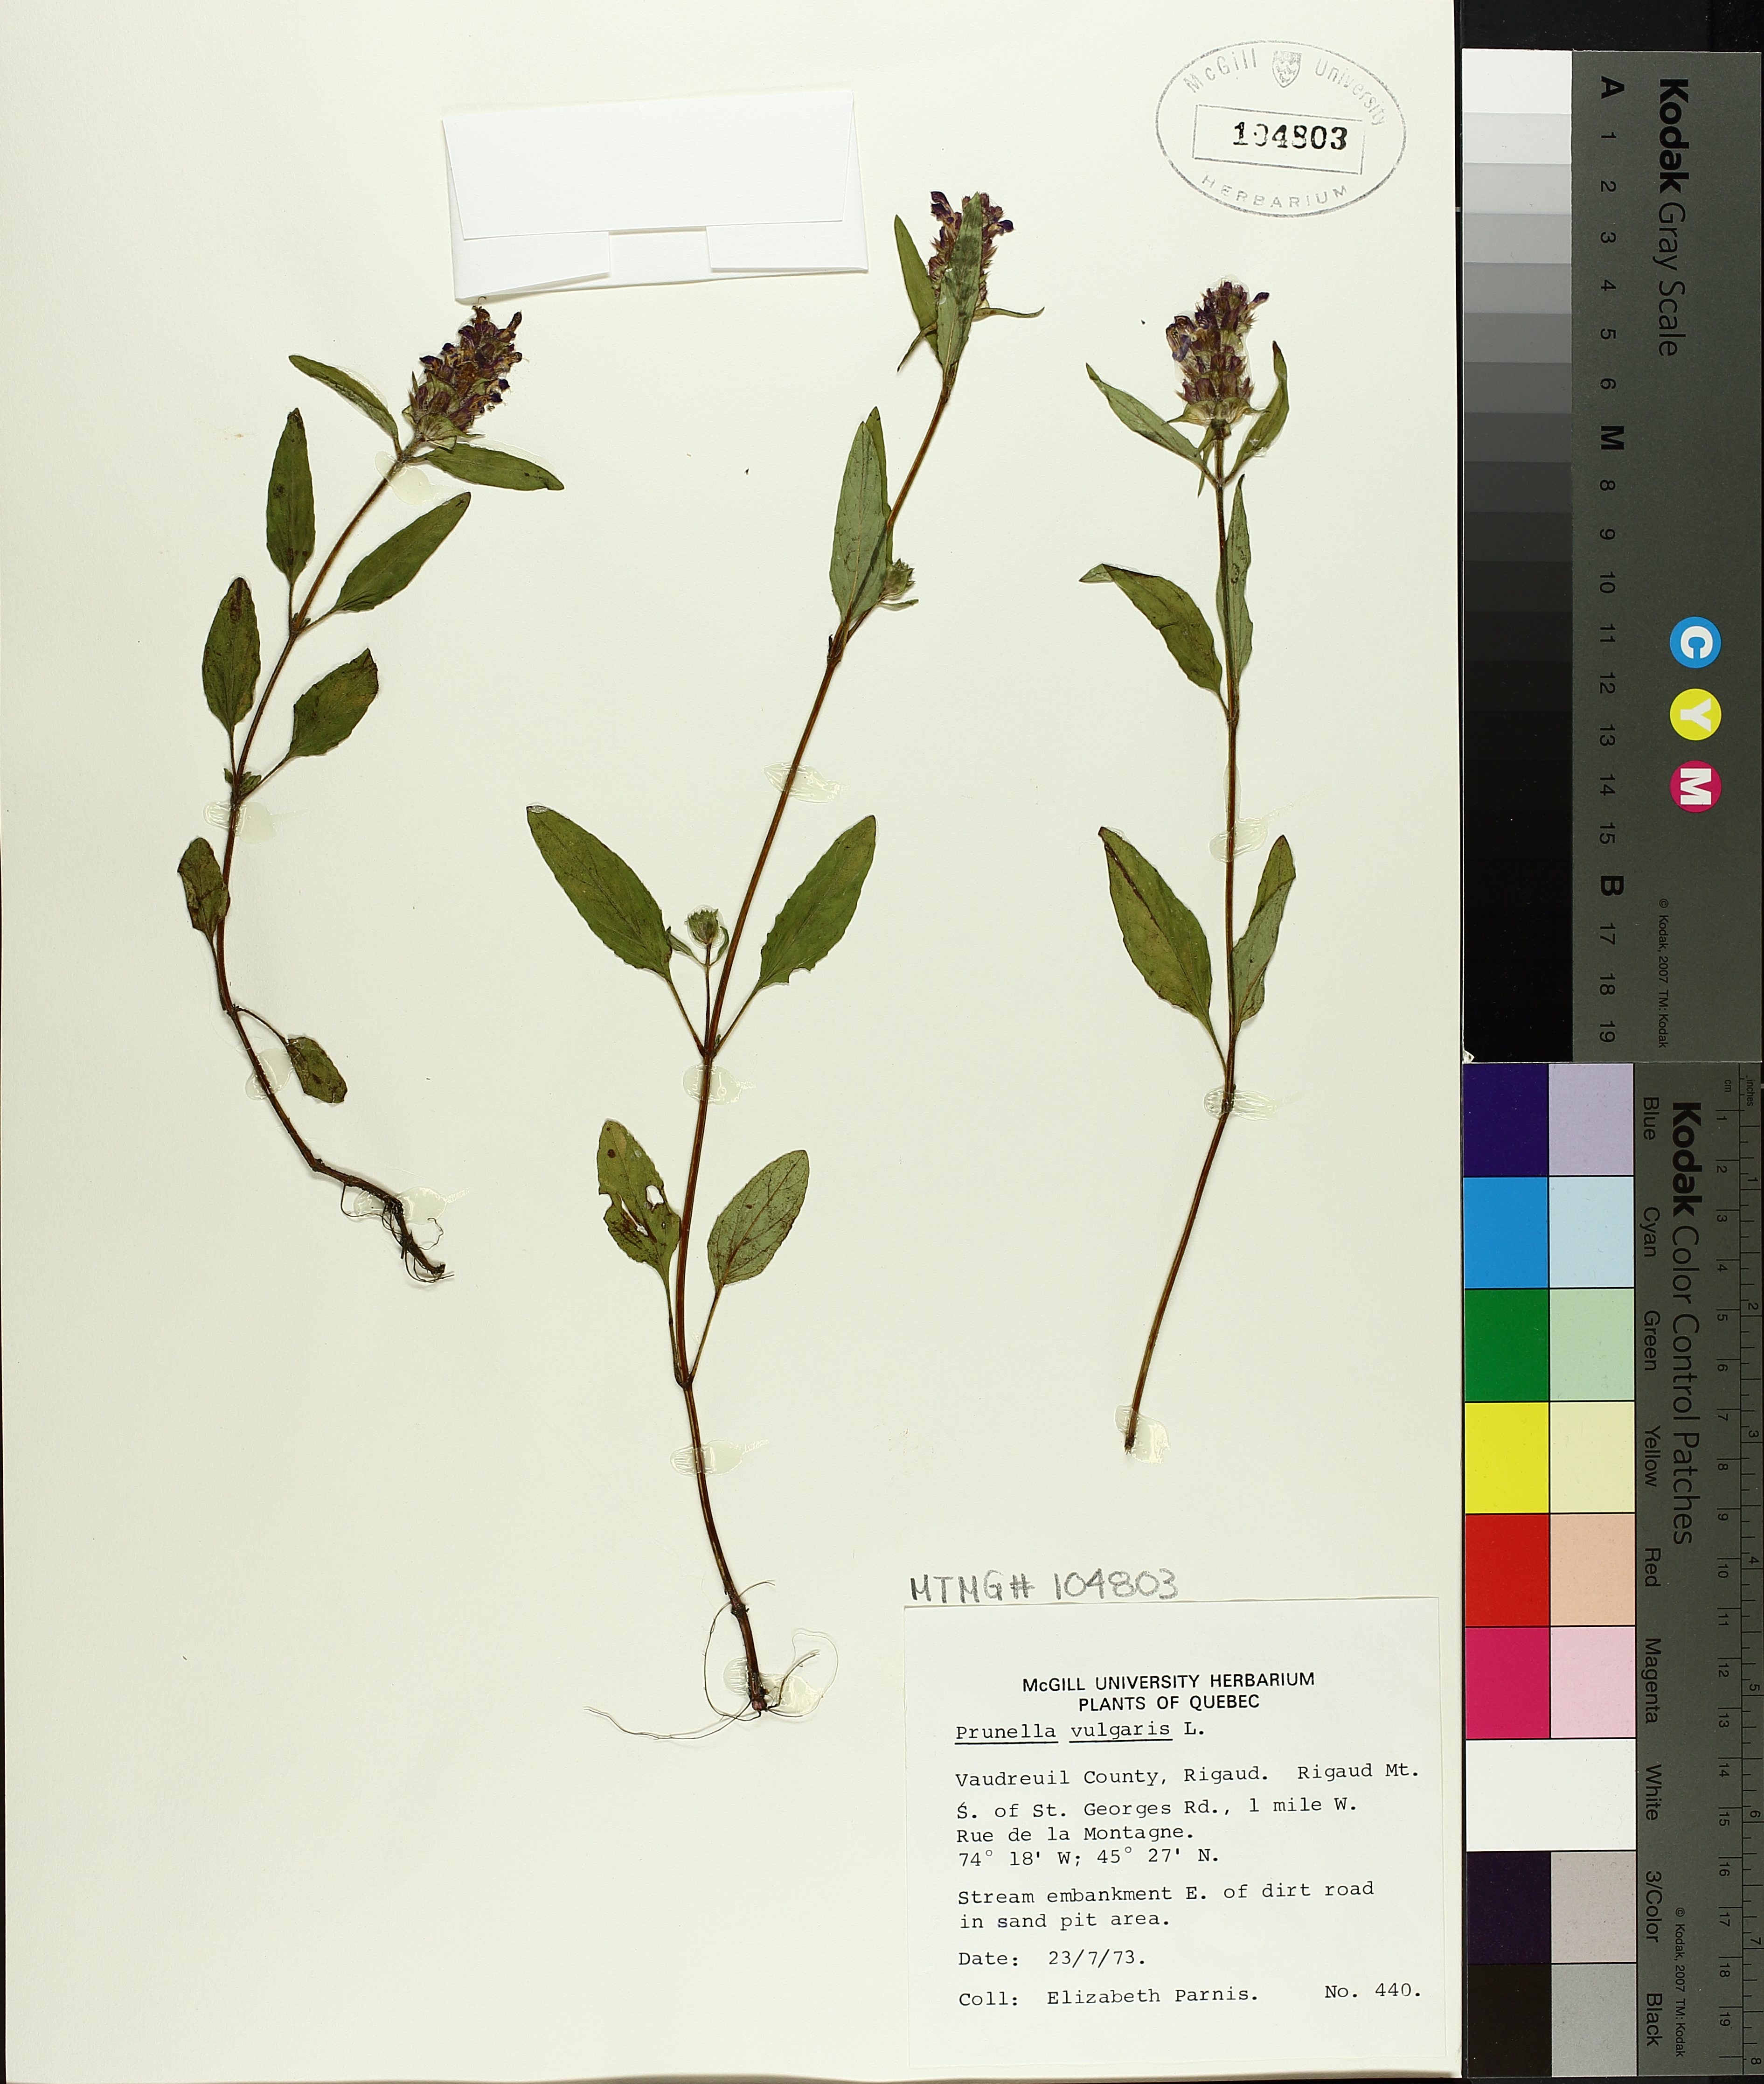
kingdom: Plantae
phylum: Tracheophyta
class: Magnoliopsida
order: Lamiales
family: Lamiaceae
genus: Prunella
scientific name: Prunella vulgaris
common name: Heal-all
